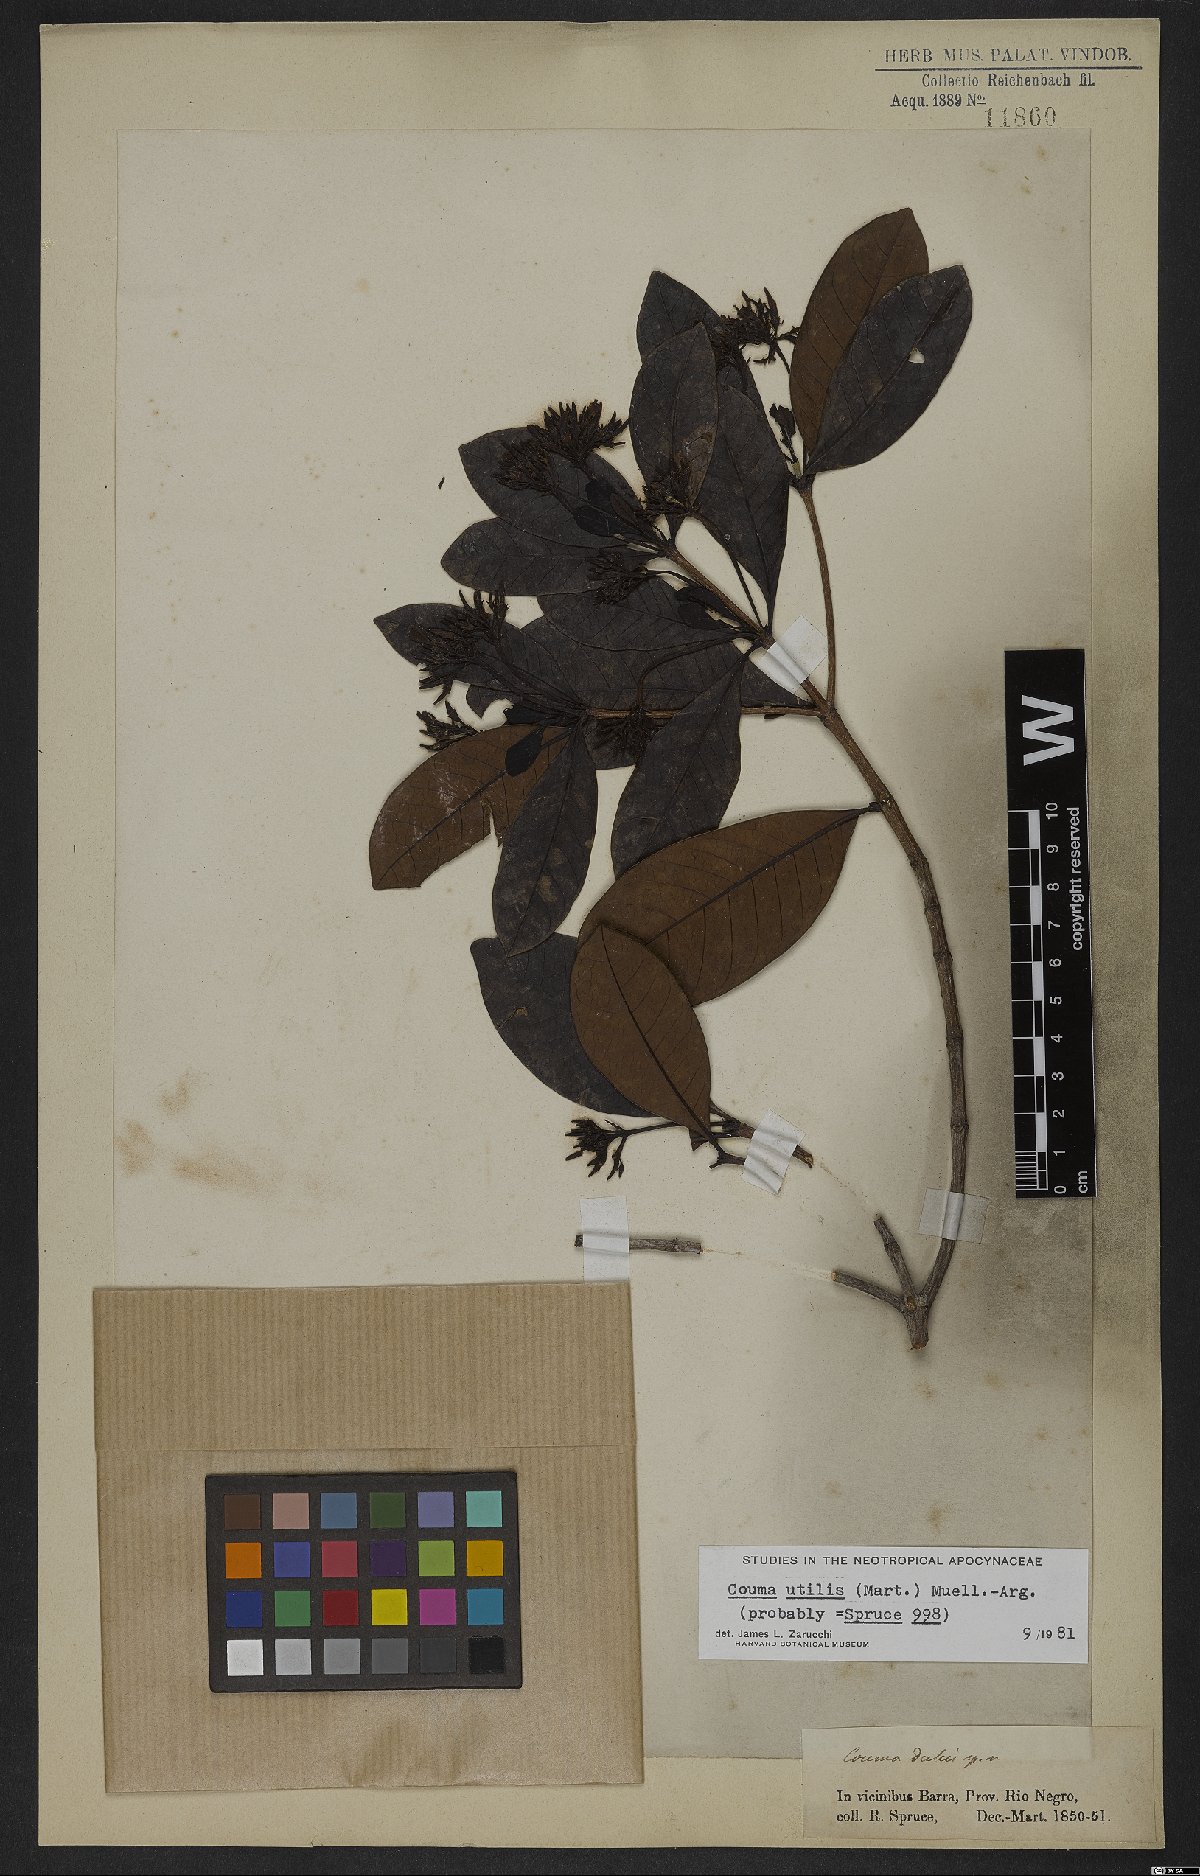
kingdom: Plantae
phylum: Tracheophyta
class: Magnoliopsida
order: Gentianales
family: Apocynaceae
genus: Couma
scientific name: Couma utilis
